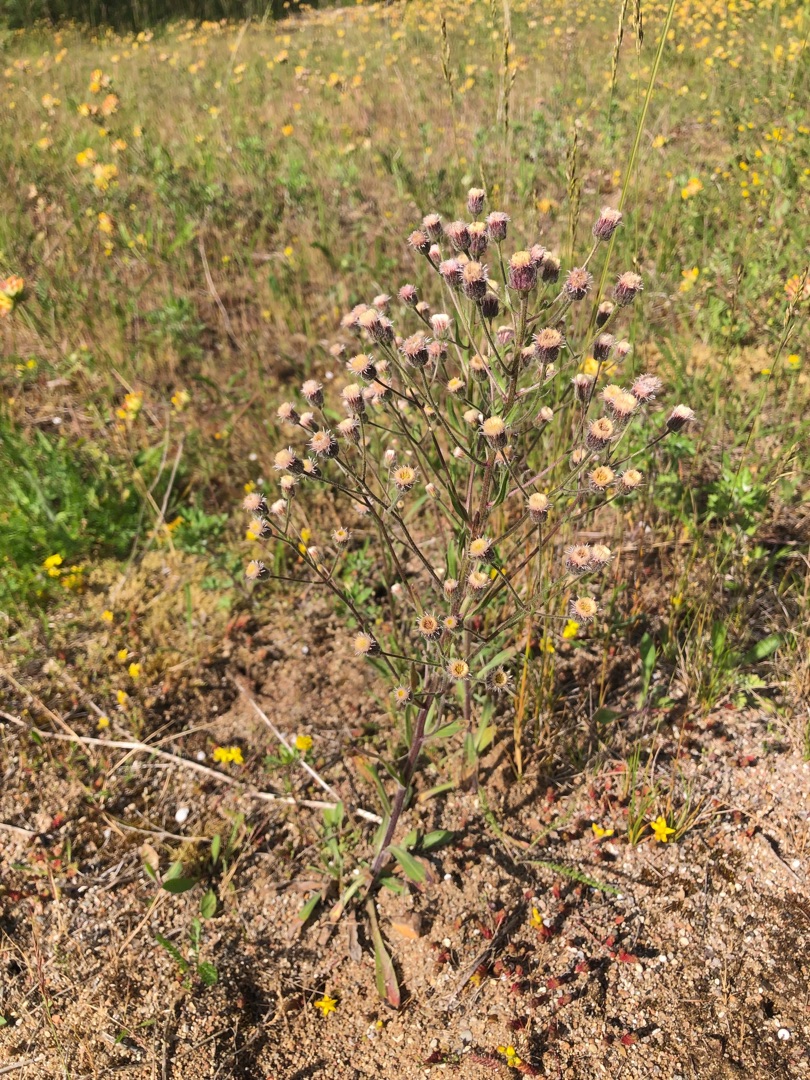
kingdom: Plantae
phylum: Tracheophyta
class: Magnoliopsida
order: Asterales
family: Asteraceae
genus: Erigeron
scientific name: Erigeron acris
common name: Bitter bakkestjerne
